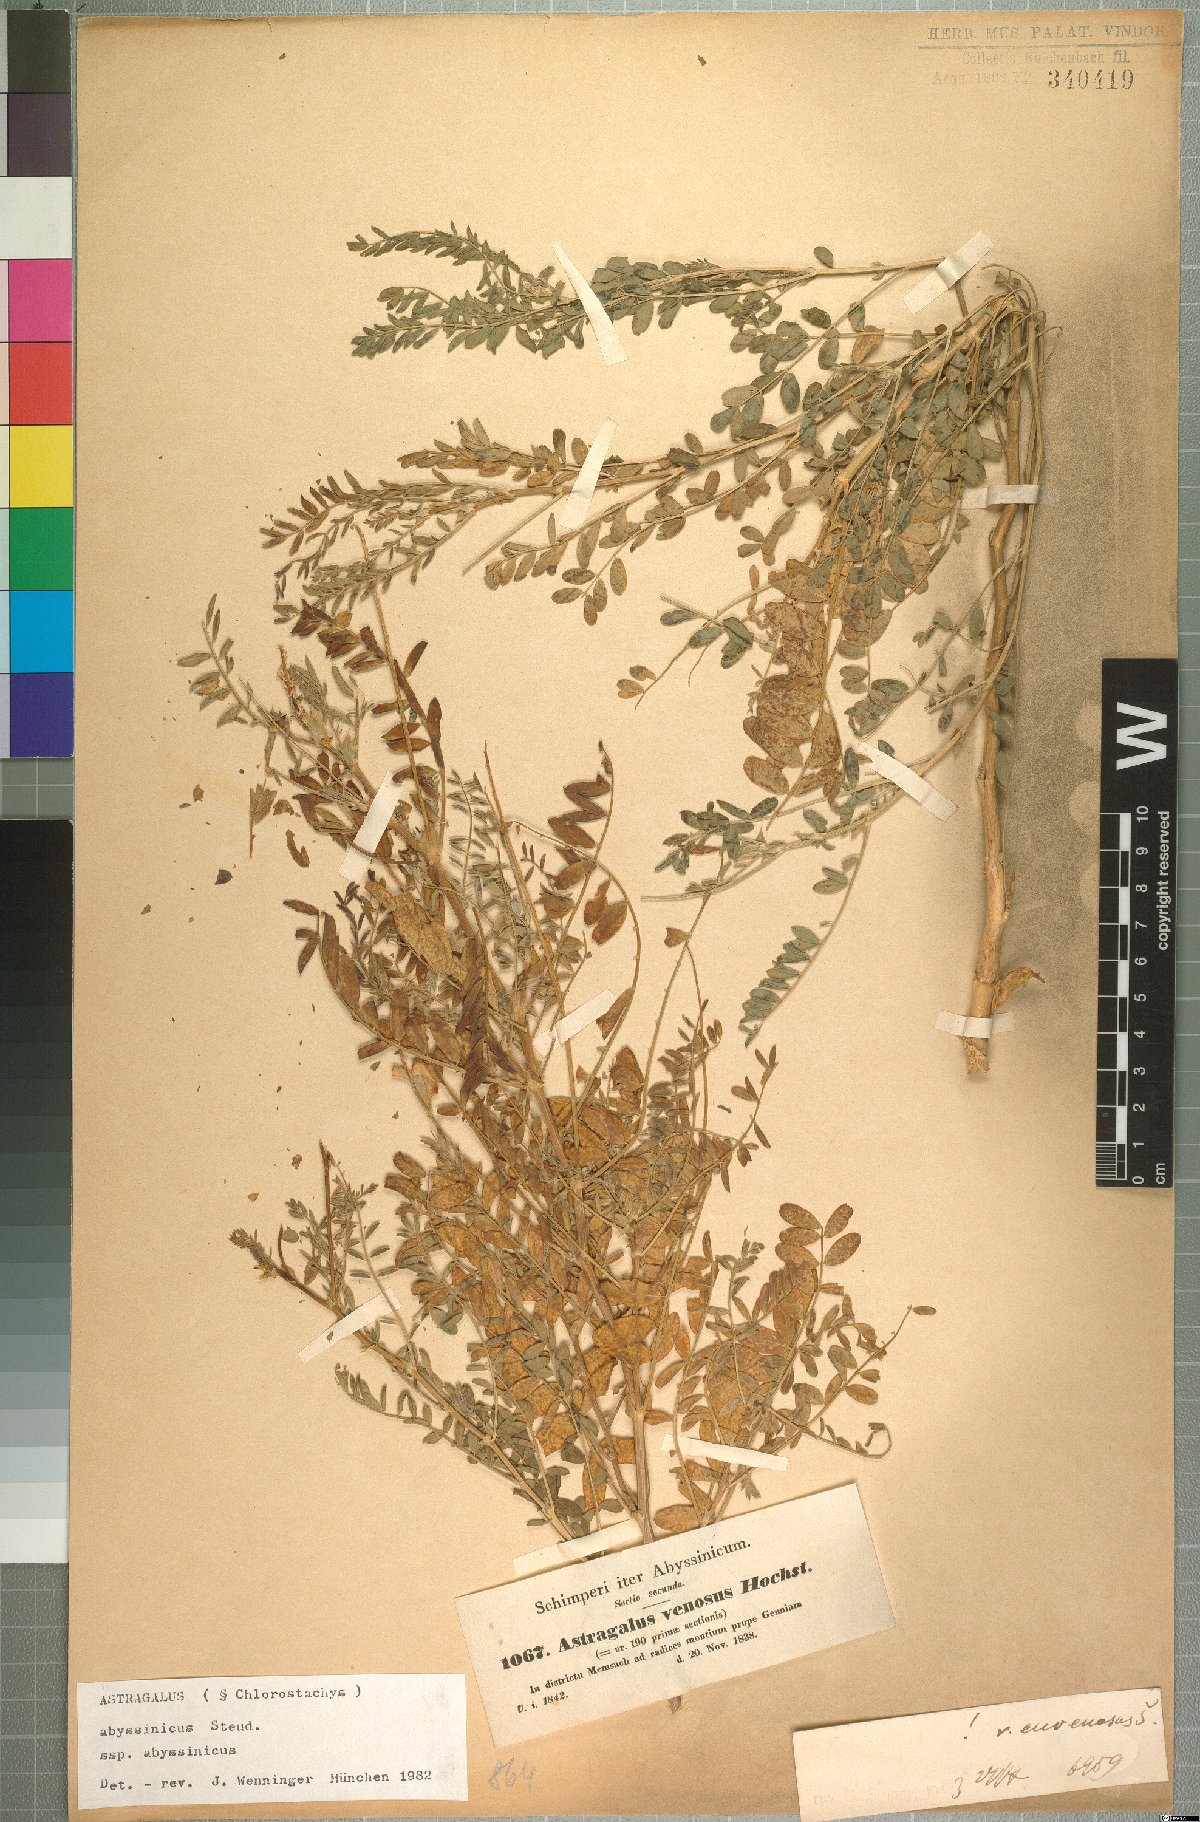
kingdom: Plantae
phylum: Tracheophyta
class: Magnoliopsida
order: Fabales
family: Fabaceae
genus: Astragalus
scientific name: Astragalus atropilosulus
